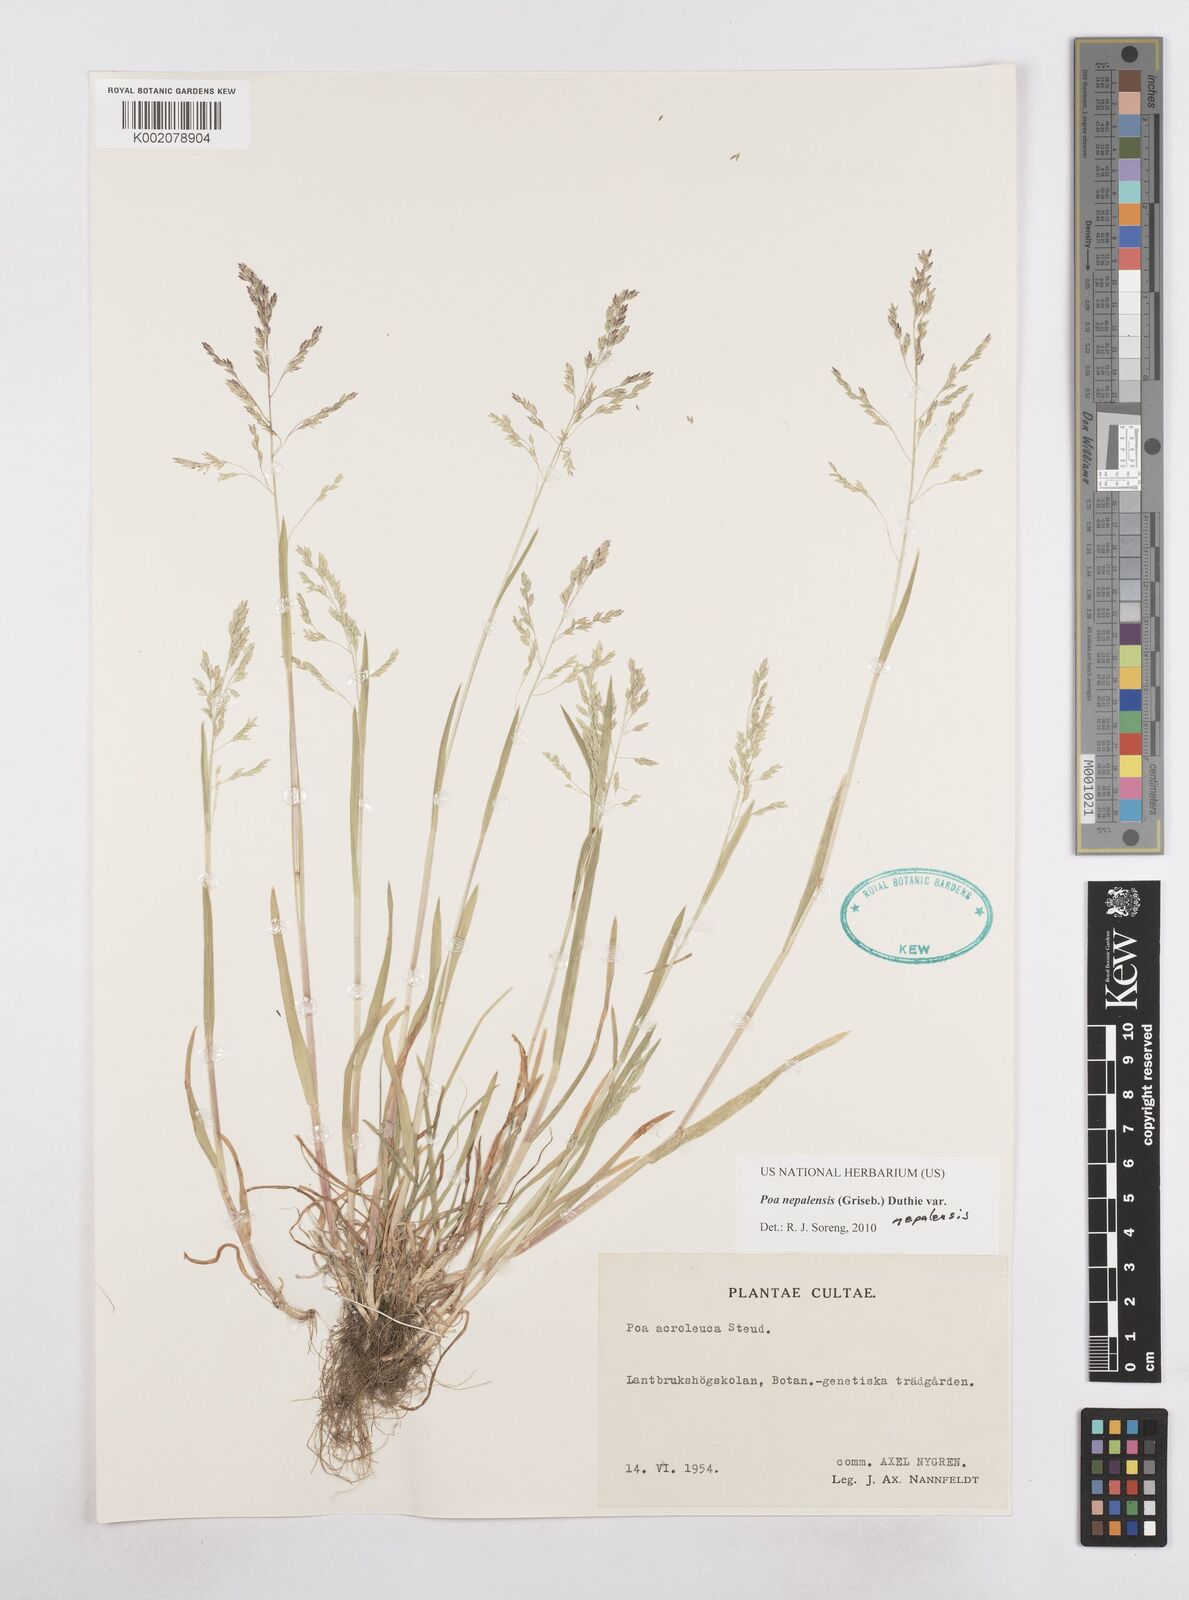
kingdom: Plantae
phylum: Tracheophyta
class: Liliopsida
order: Poales
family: Poaceae
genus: Poa
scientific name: Poa nepalensis
